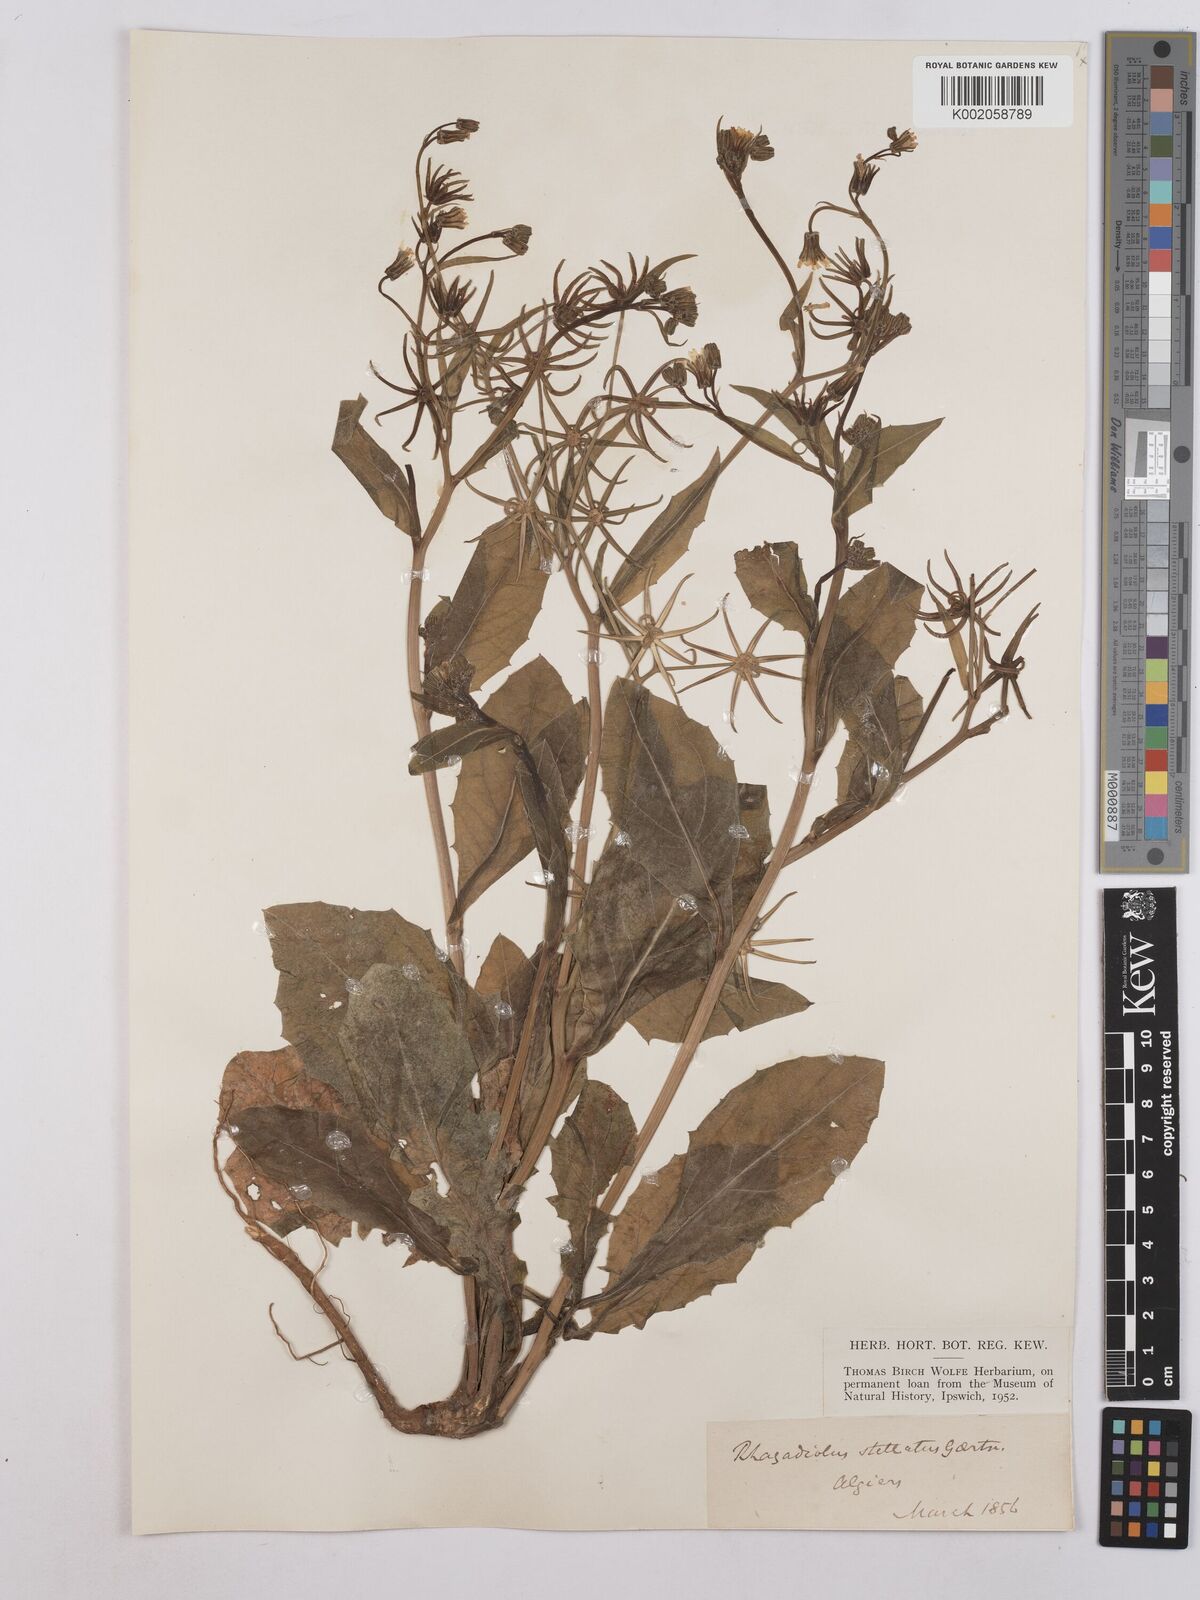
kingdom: Plantae
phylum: Tracheophyta
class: Magnoliopsida
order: Asterales
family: Asteraceae
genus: Rhagadiolus
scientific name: Rhagadiolus stellatus
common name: Star hawkbit
